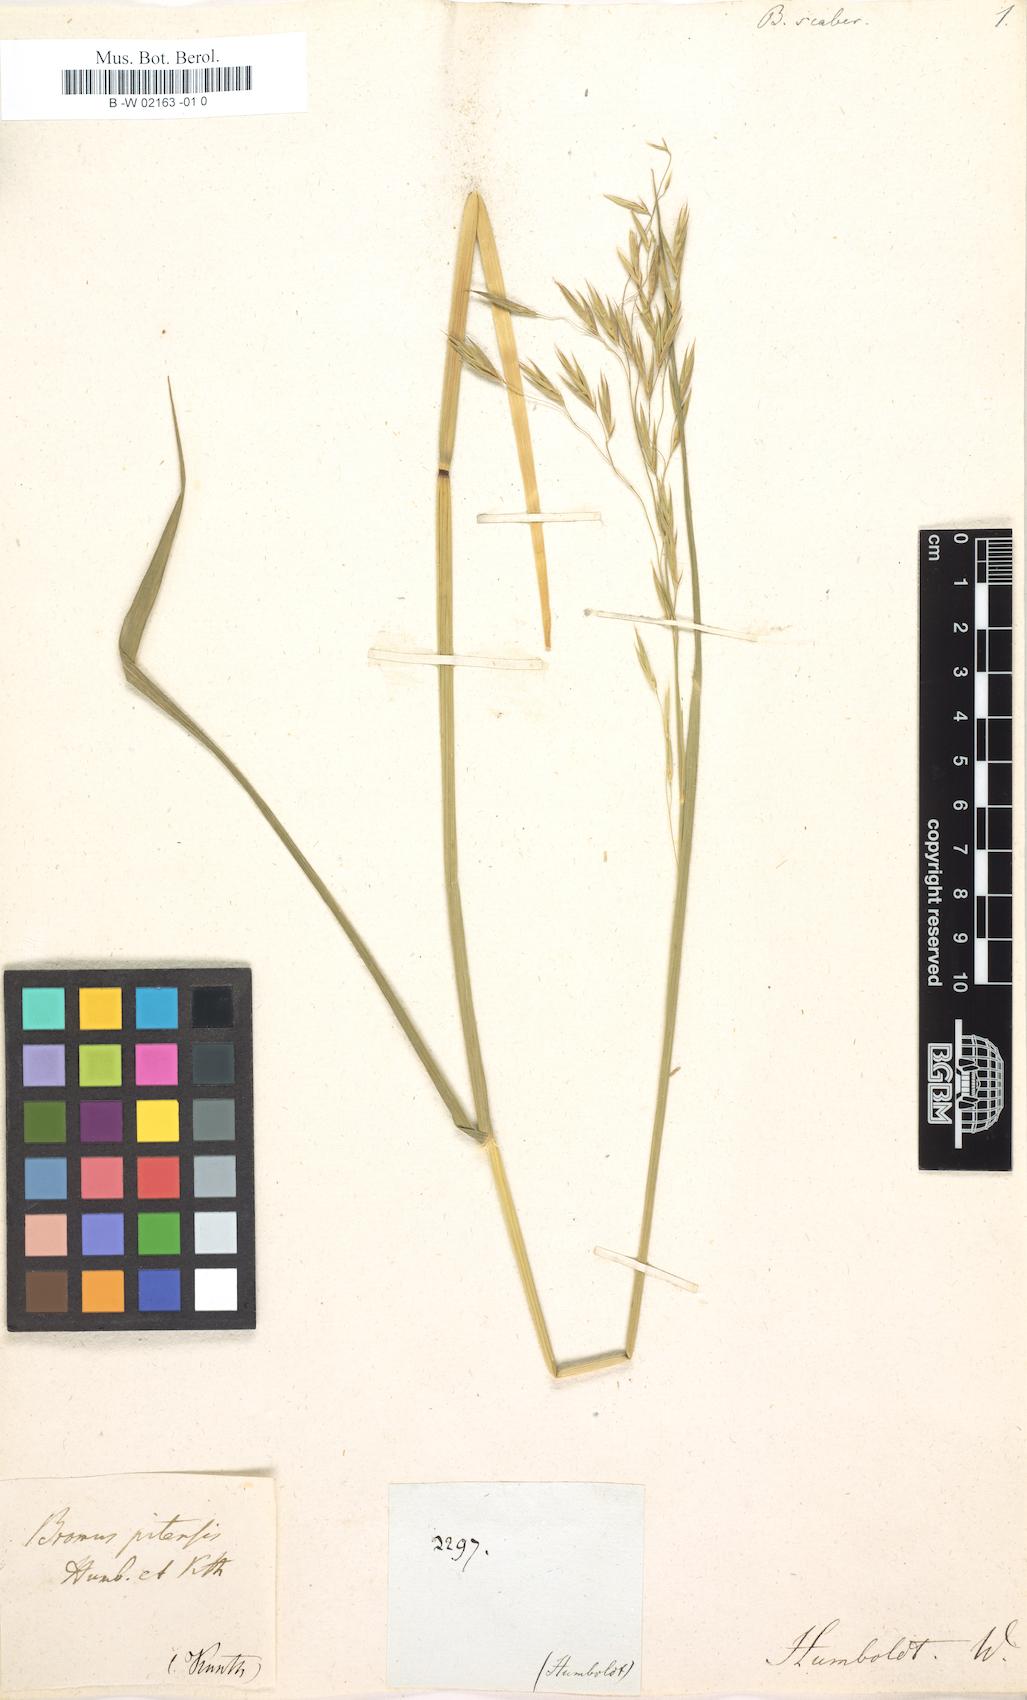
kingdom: Plantae
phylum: Tracheophyta
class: Liliopsida
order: Poales
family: Poaceae
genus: Bromus
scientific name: Bromus lithobius
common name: Chilean brome
